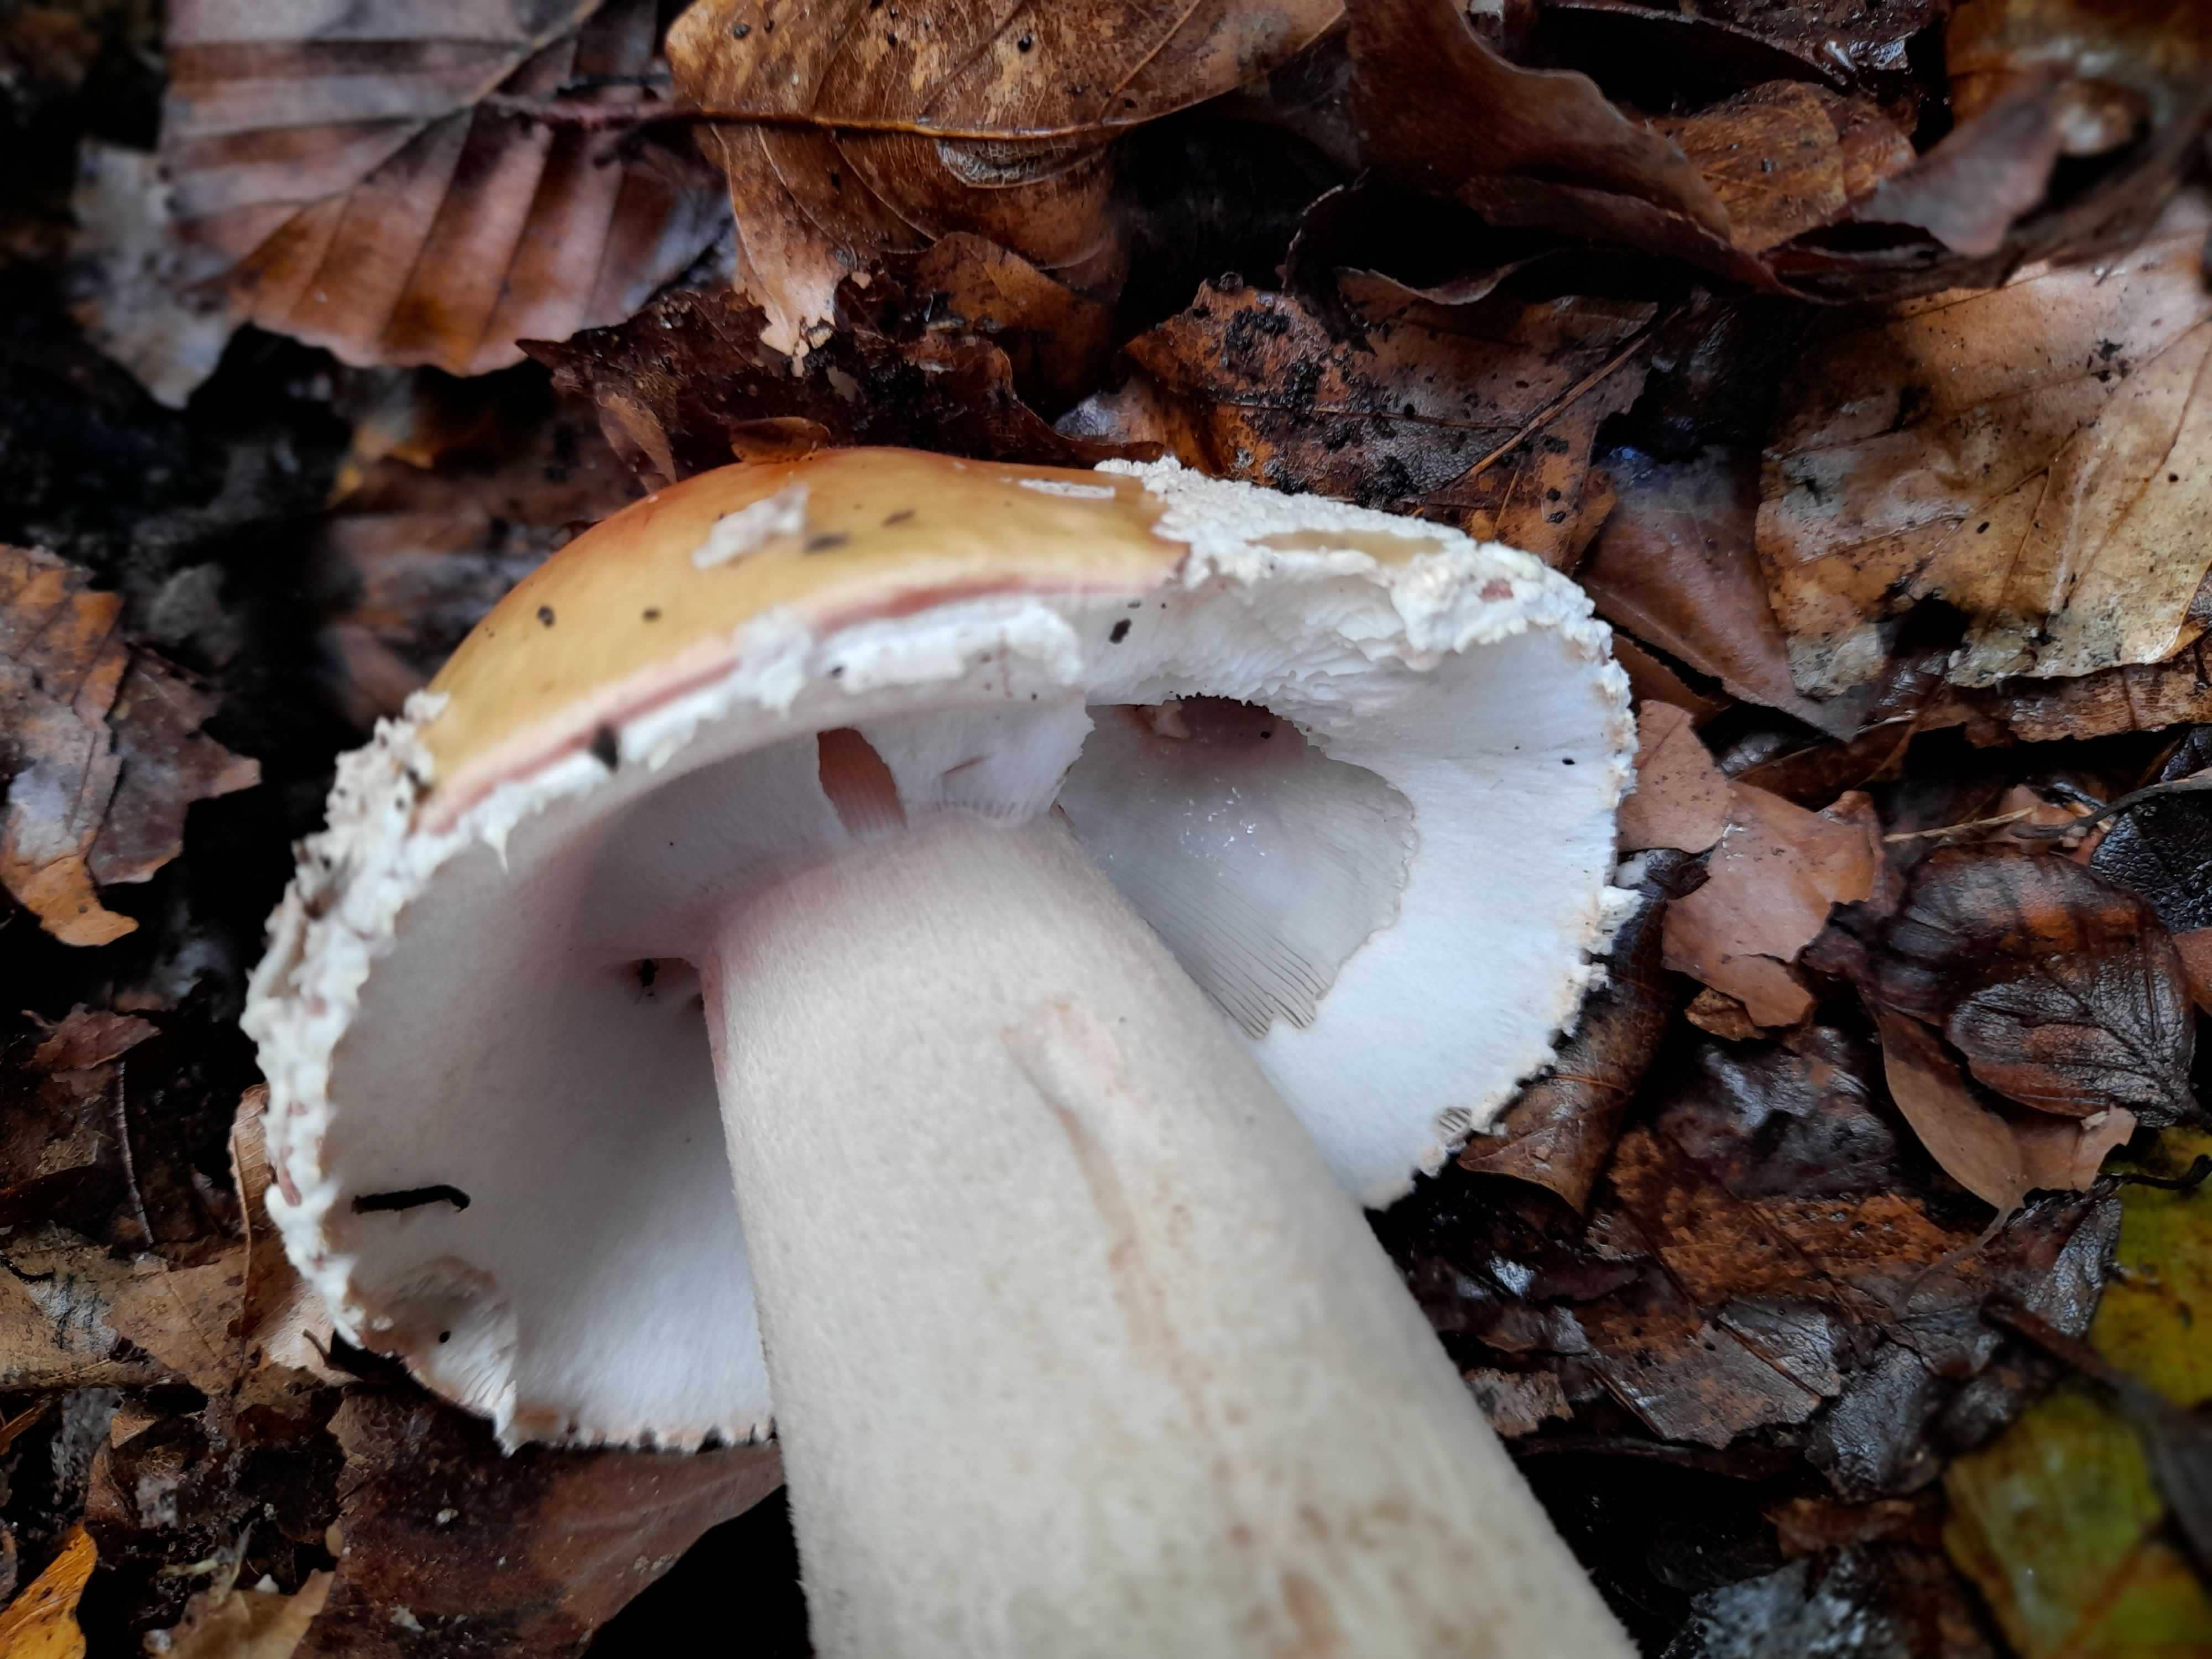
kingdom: Fungi
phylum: Basidiomycota
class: Agaricomycetes
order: Agaricales
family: Amanitaceae
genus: Amanita
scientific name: Amanita muscaria
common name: rød fluesvamp
